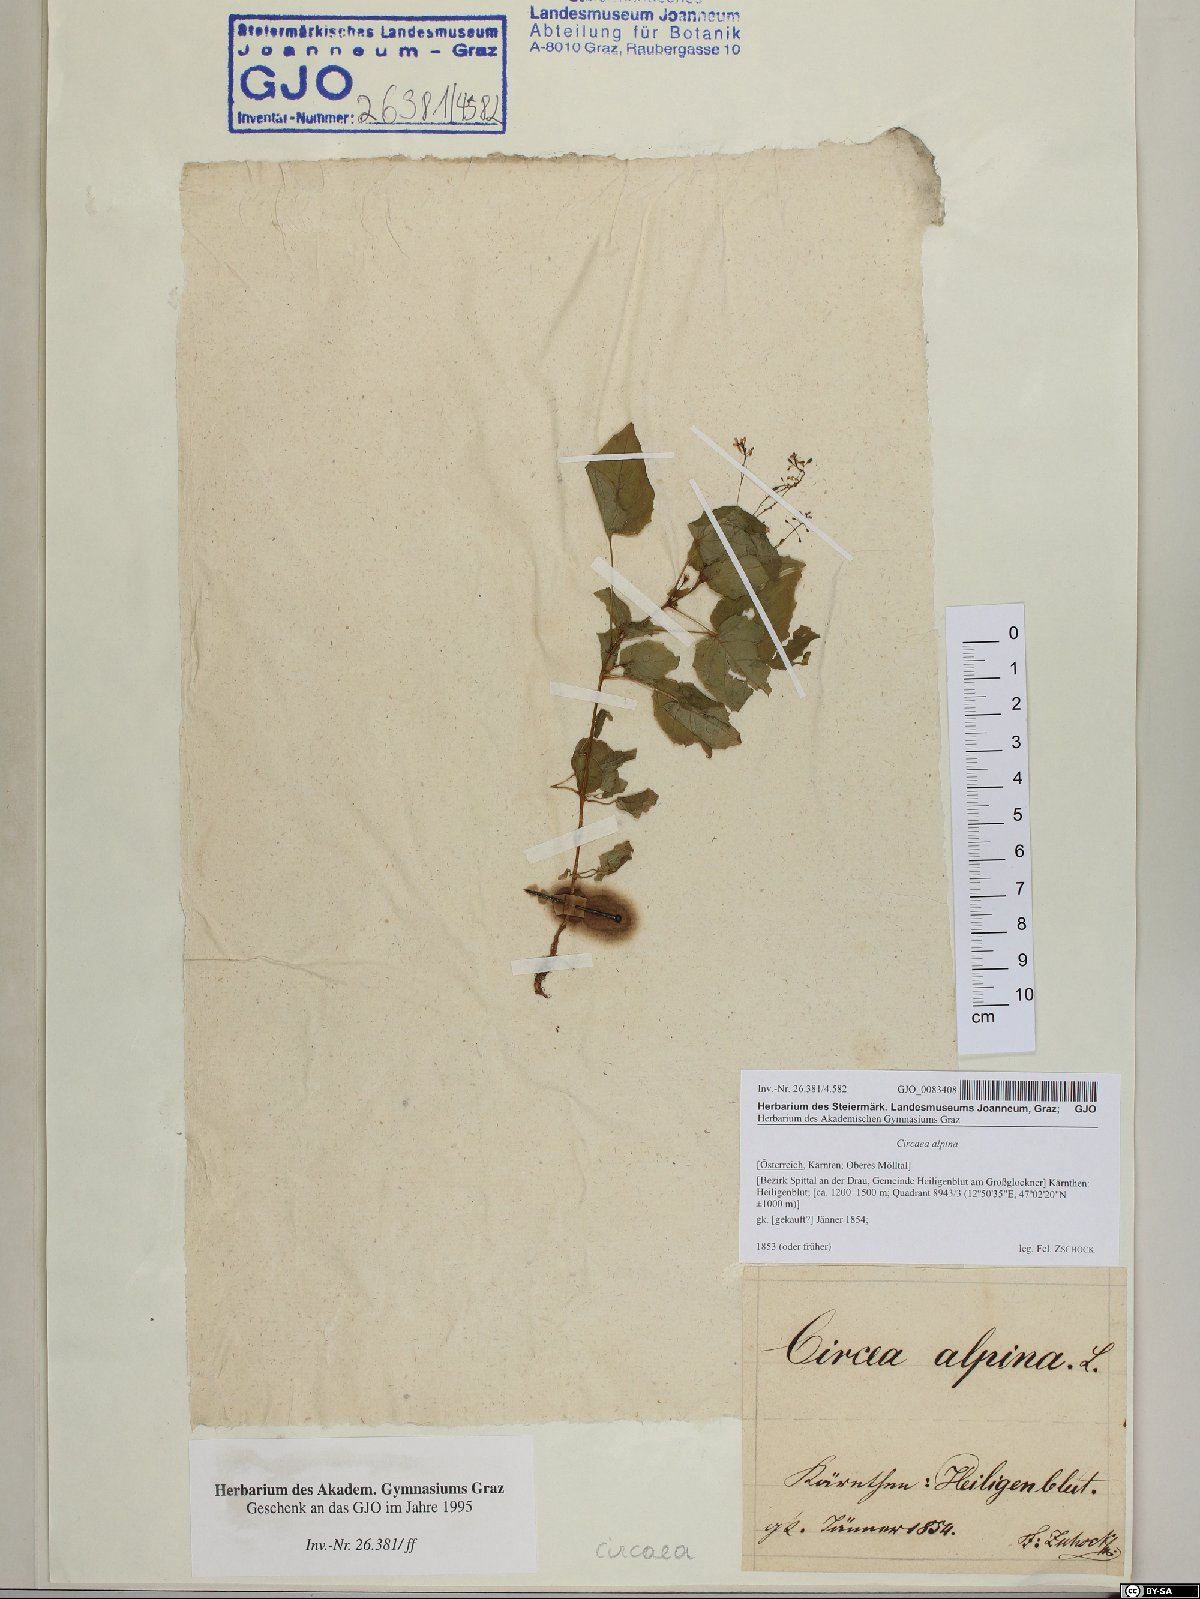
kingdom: Plantae
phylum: Tracheophyta
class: Magnoliopsida
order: Myrtales
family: Onagraceae
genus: Circaea
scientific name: Circaea alpina
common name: Alpine enchanter's-nightshade
